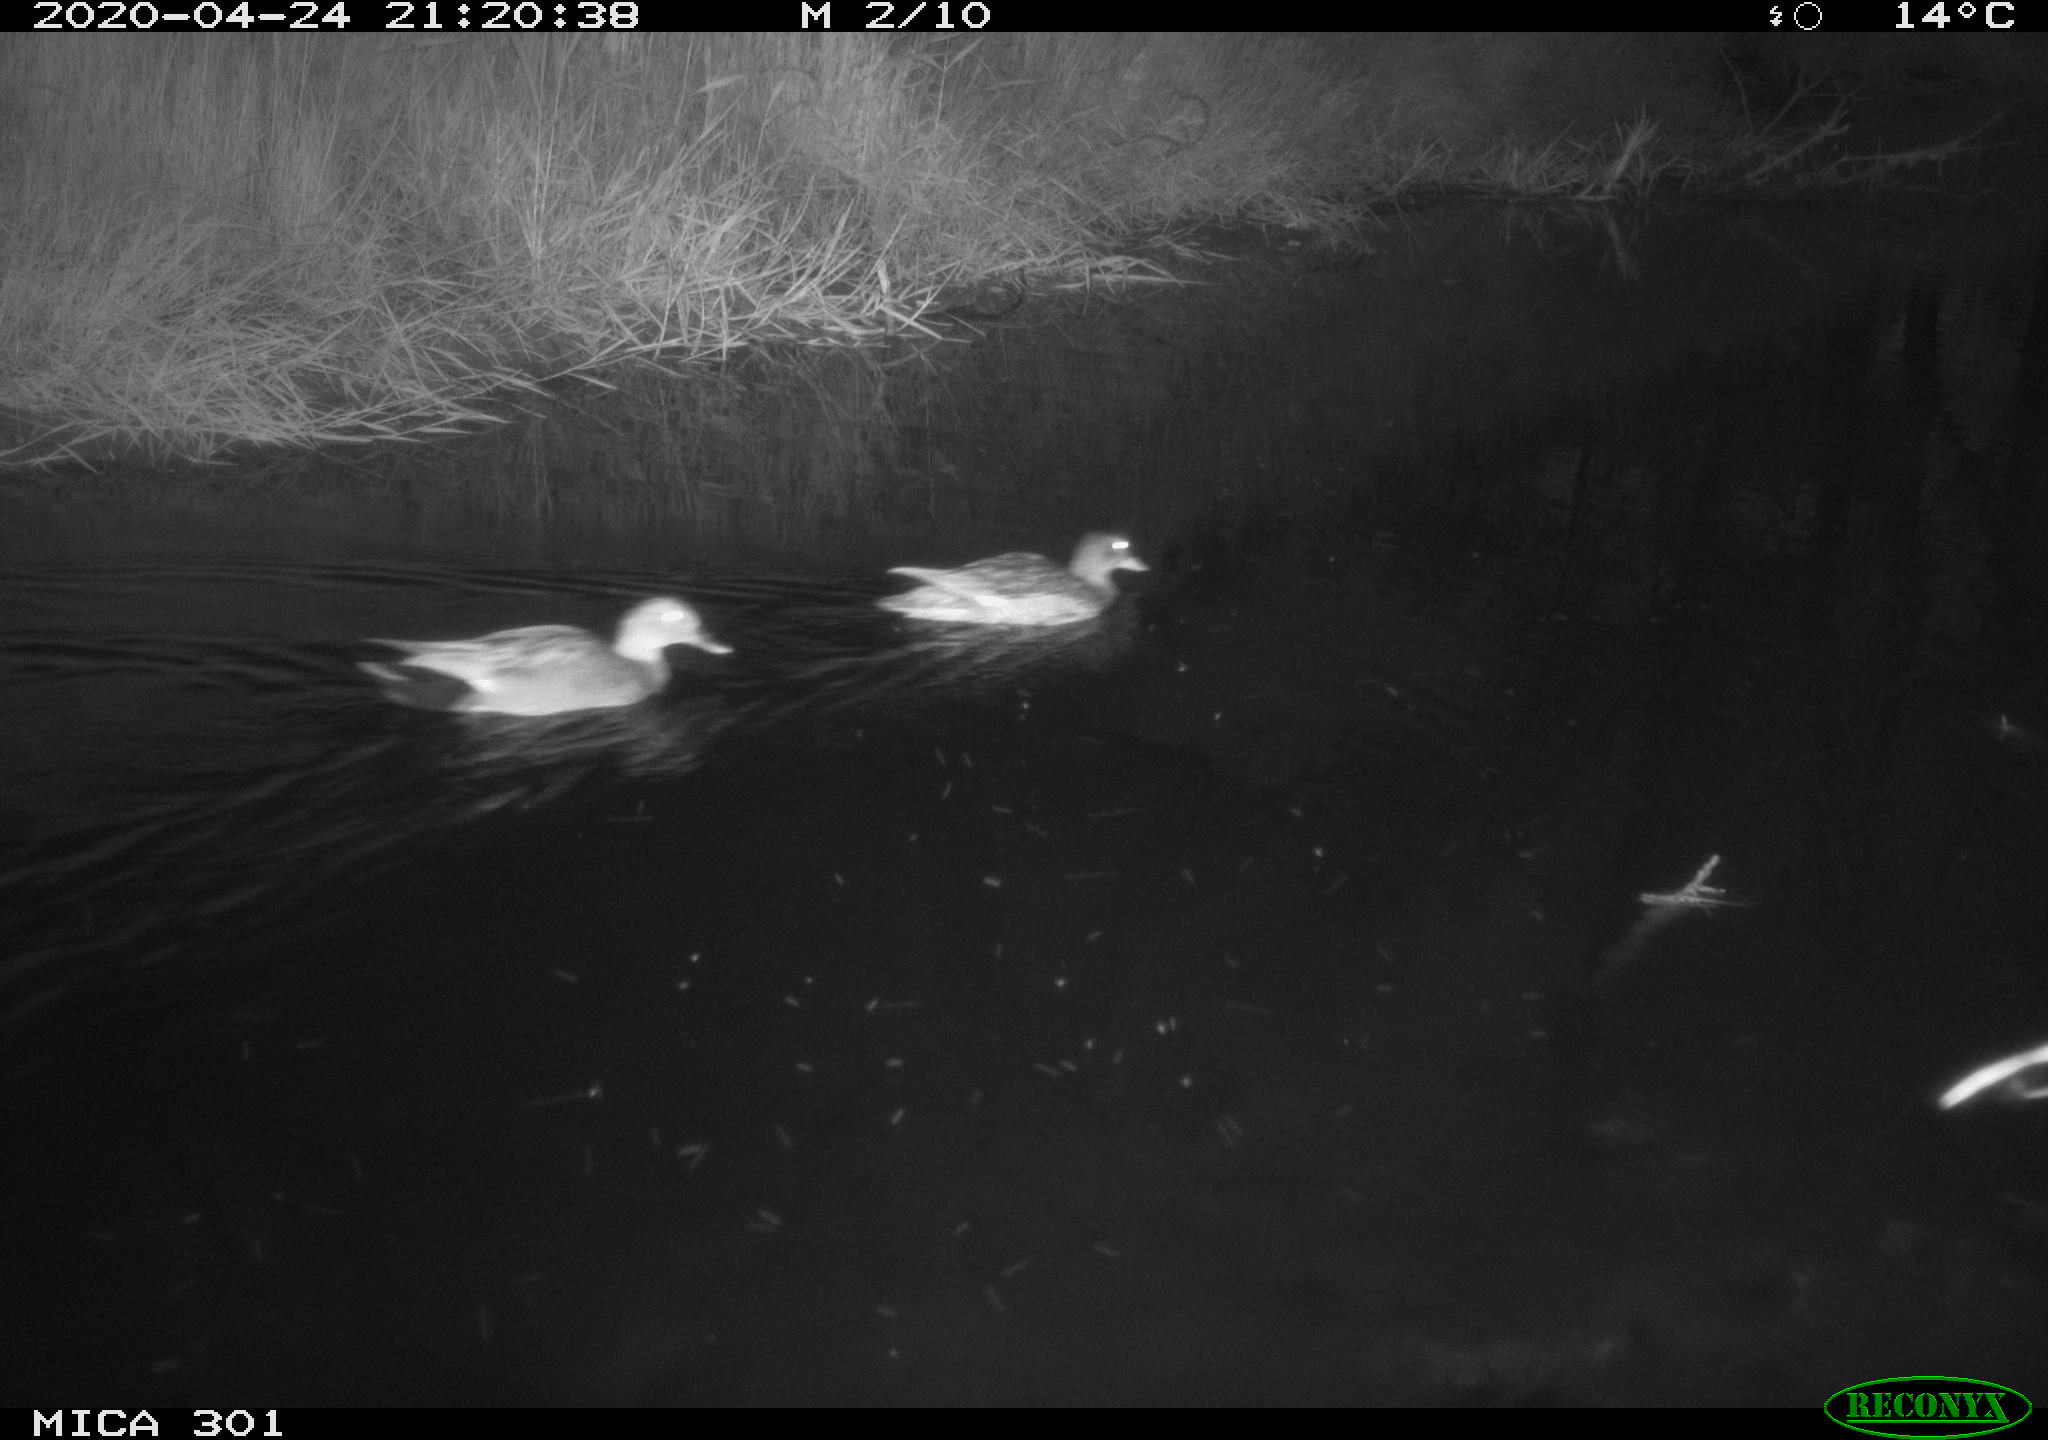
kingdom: Animalia
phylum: Chordata
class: Aves
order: Anseriformes
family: Anatidae
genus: Mareca
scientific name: Mareca strepera
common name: Gadwall
